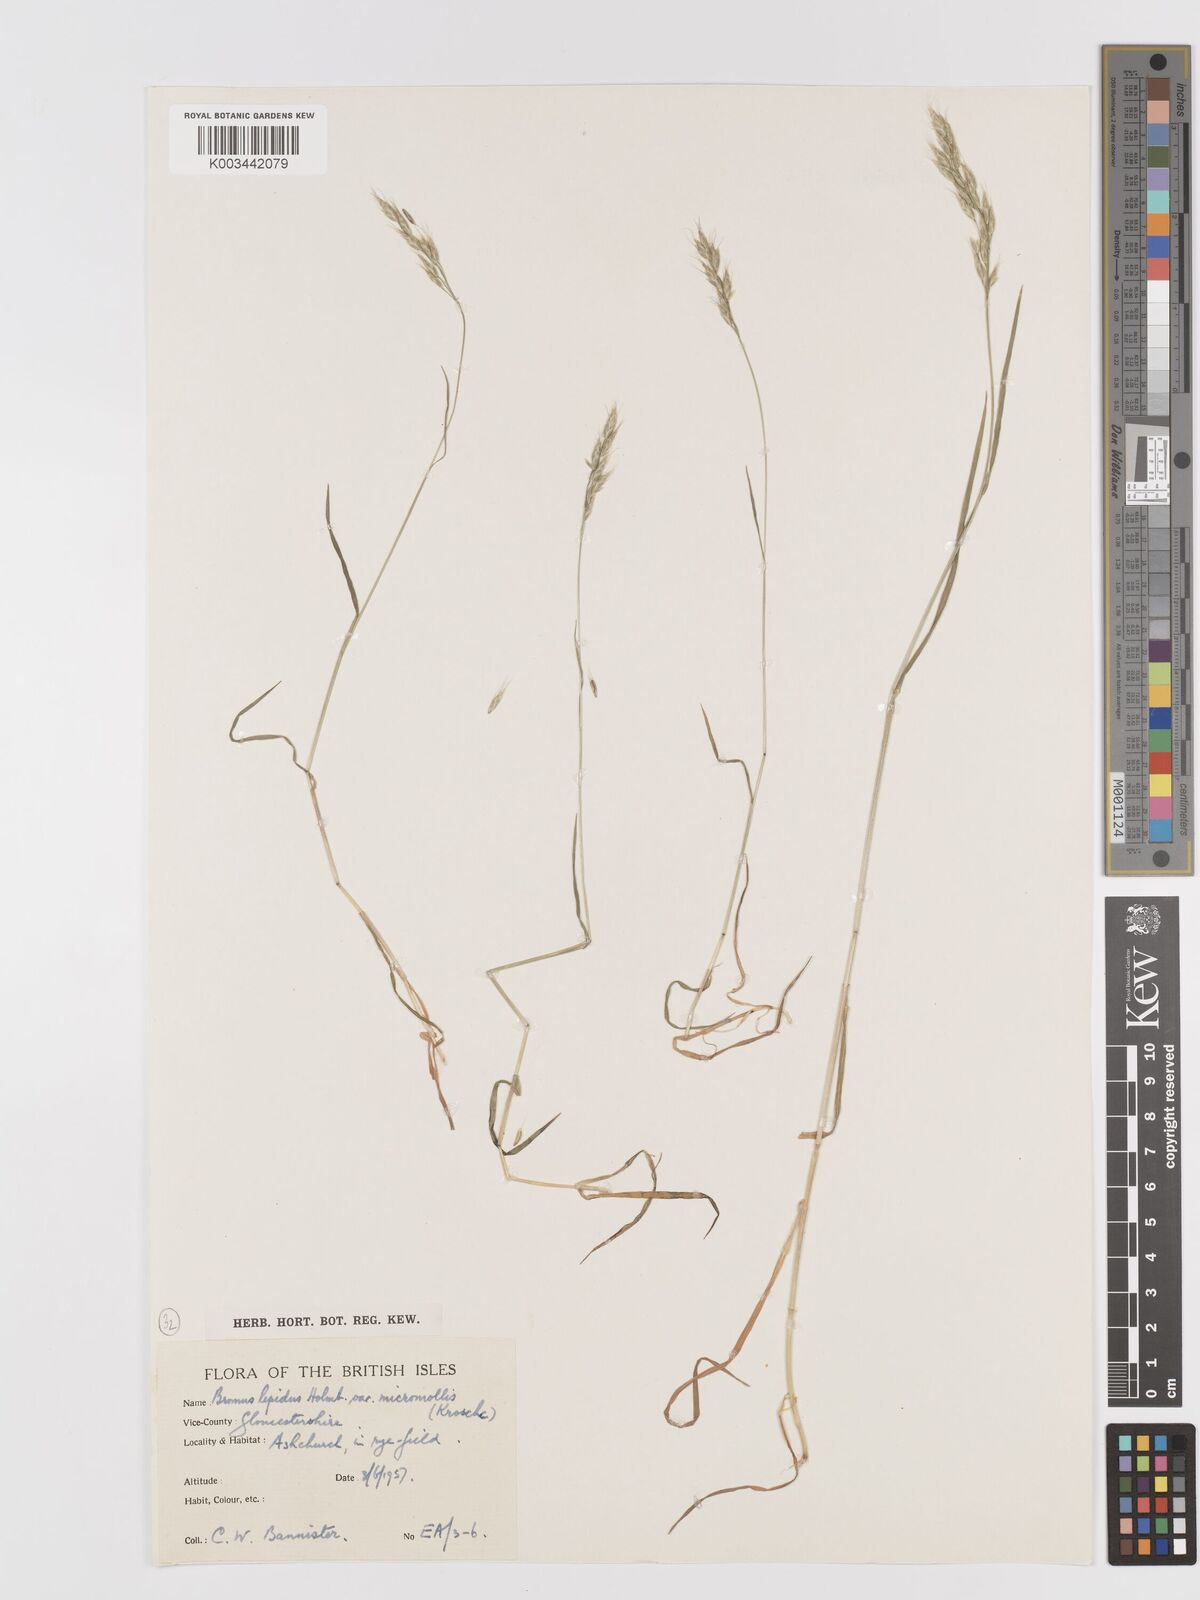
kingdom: Plantae
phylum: Tracheophyta
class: Liliopsida
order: Poales
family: Poaceae
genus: Bromus
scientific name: Bromus lepidus
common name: Slender soft-brome
